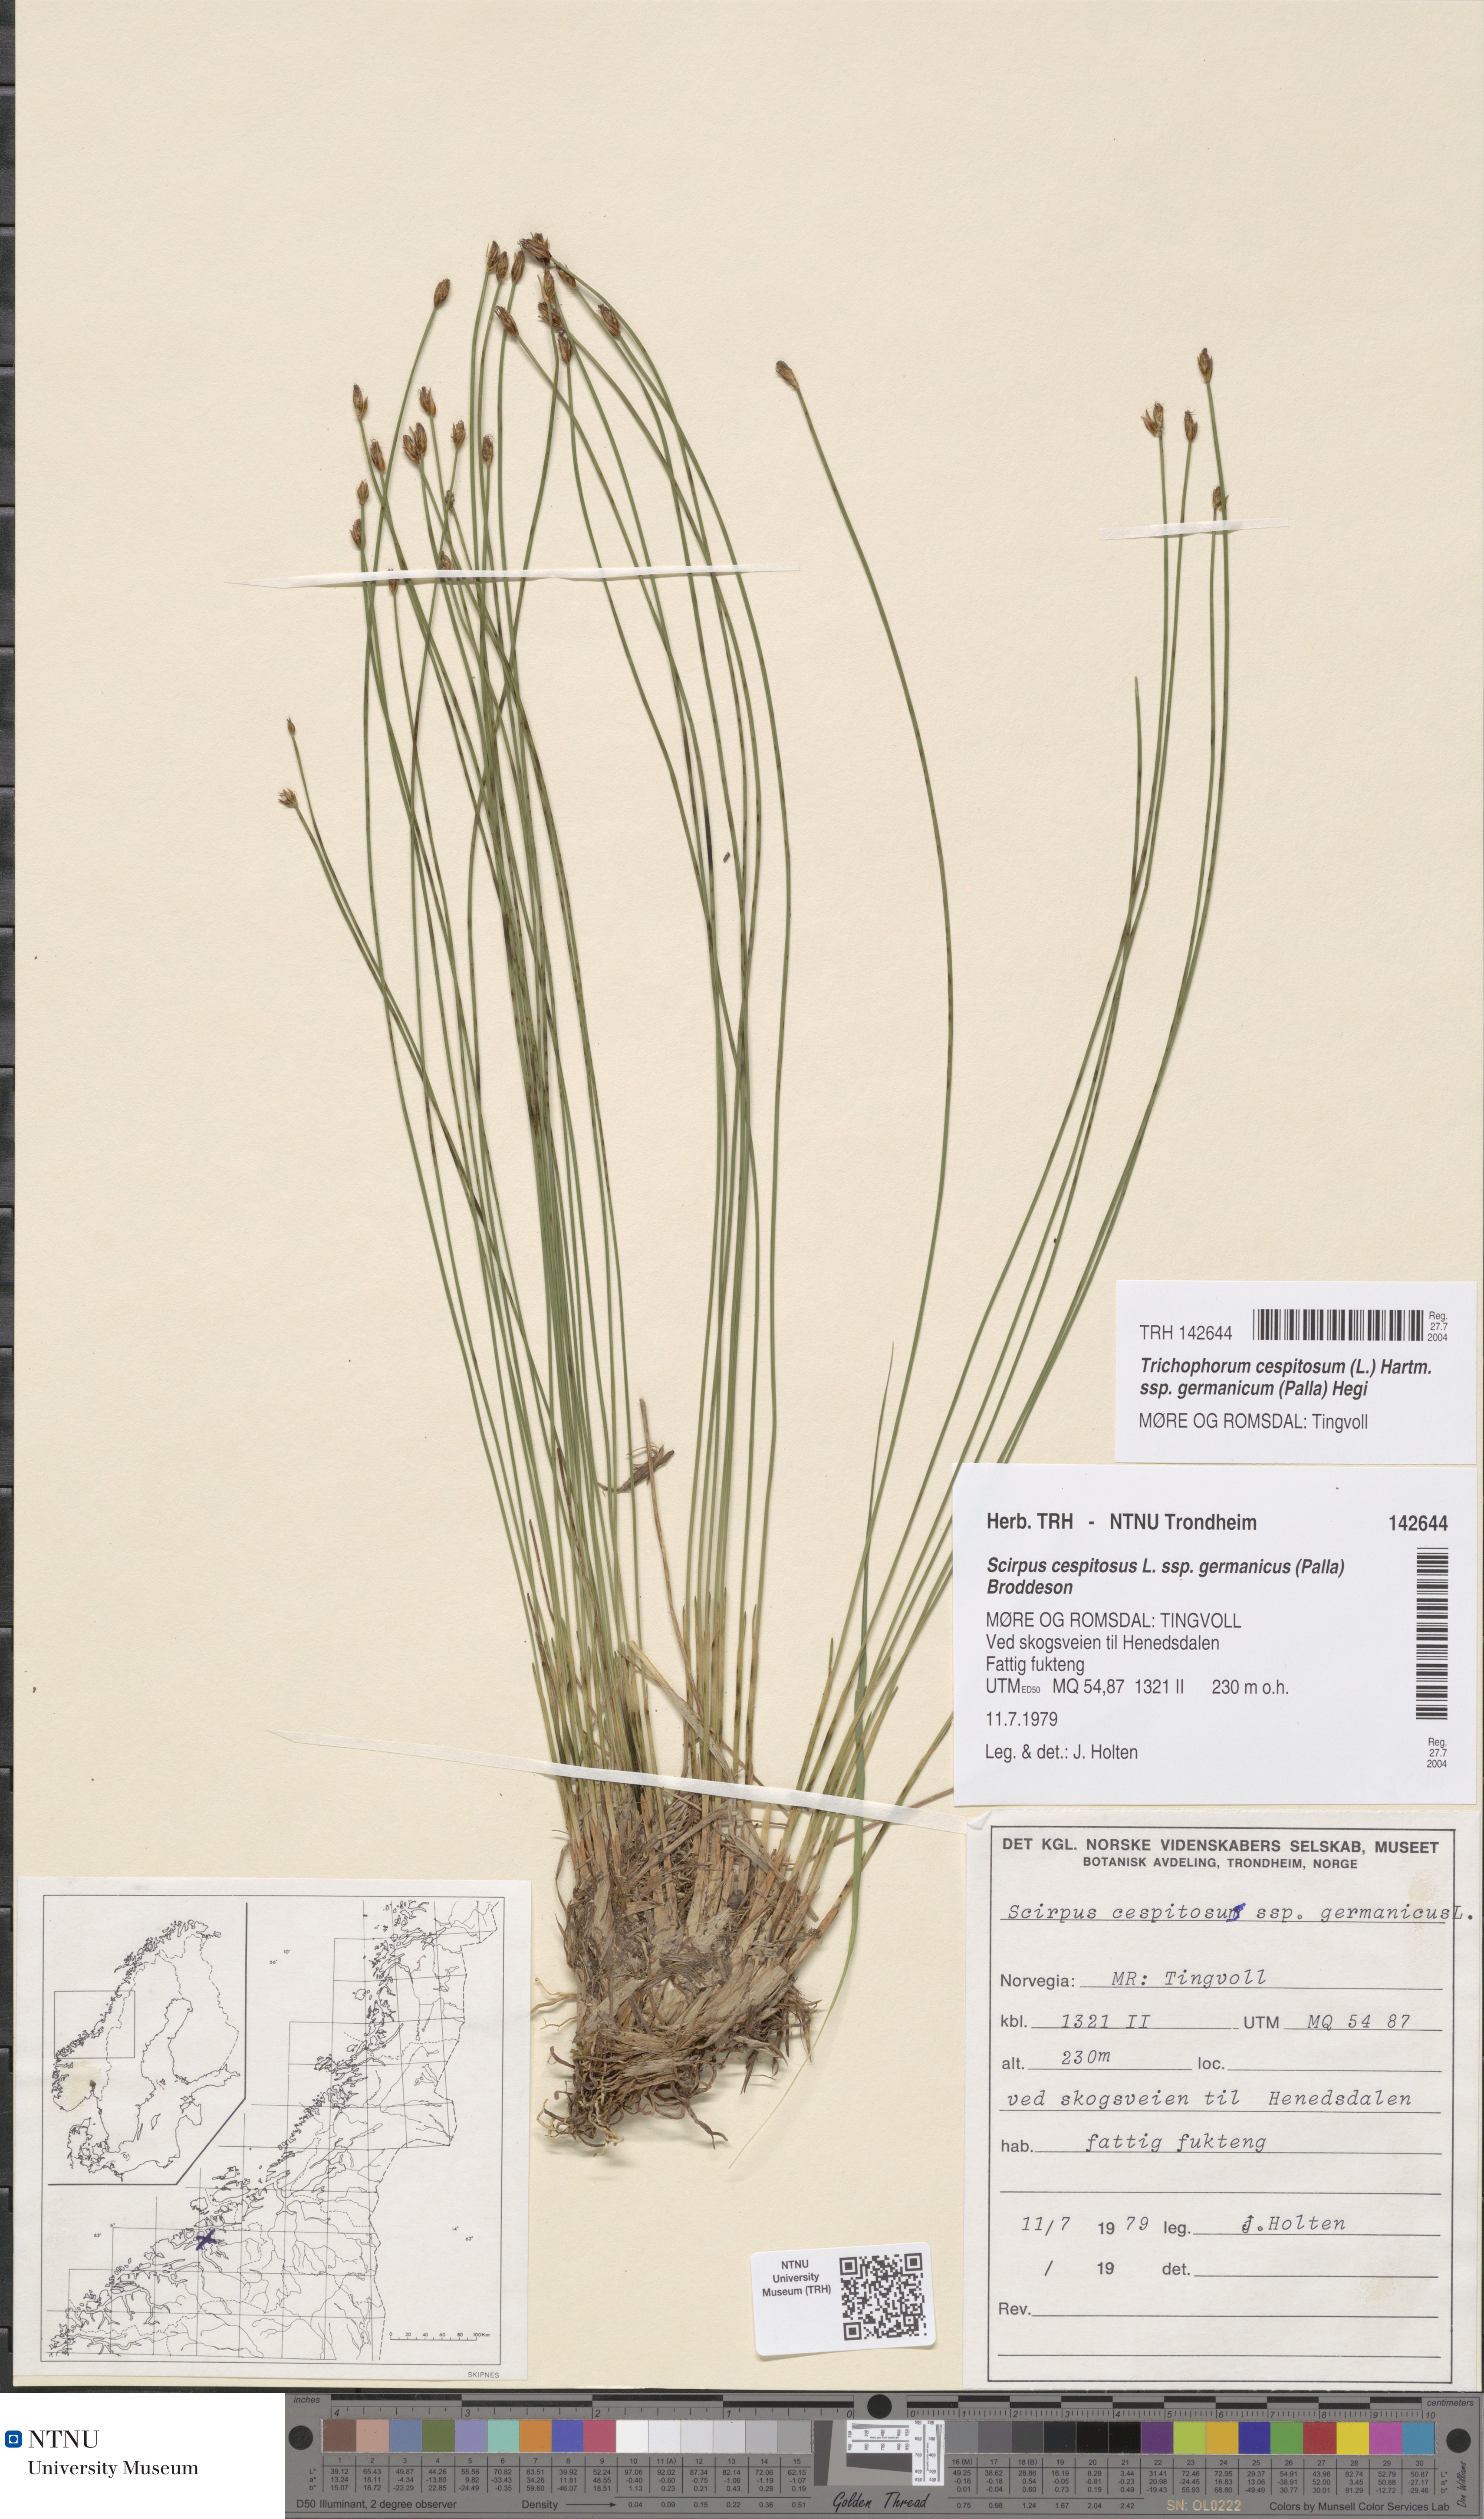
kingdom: Plantae
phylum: Tracheophyta
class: Liliopsida
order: Poales
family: Cyperaceae
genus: Trichophorum
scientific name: Trichophorum cespitosum
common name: Cespitose bulrush
